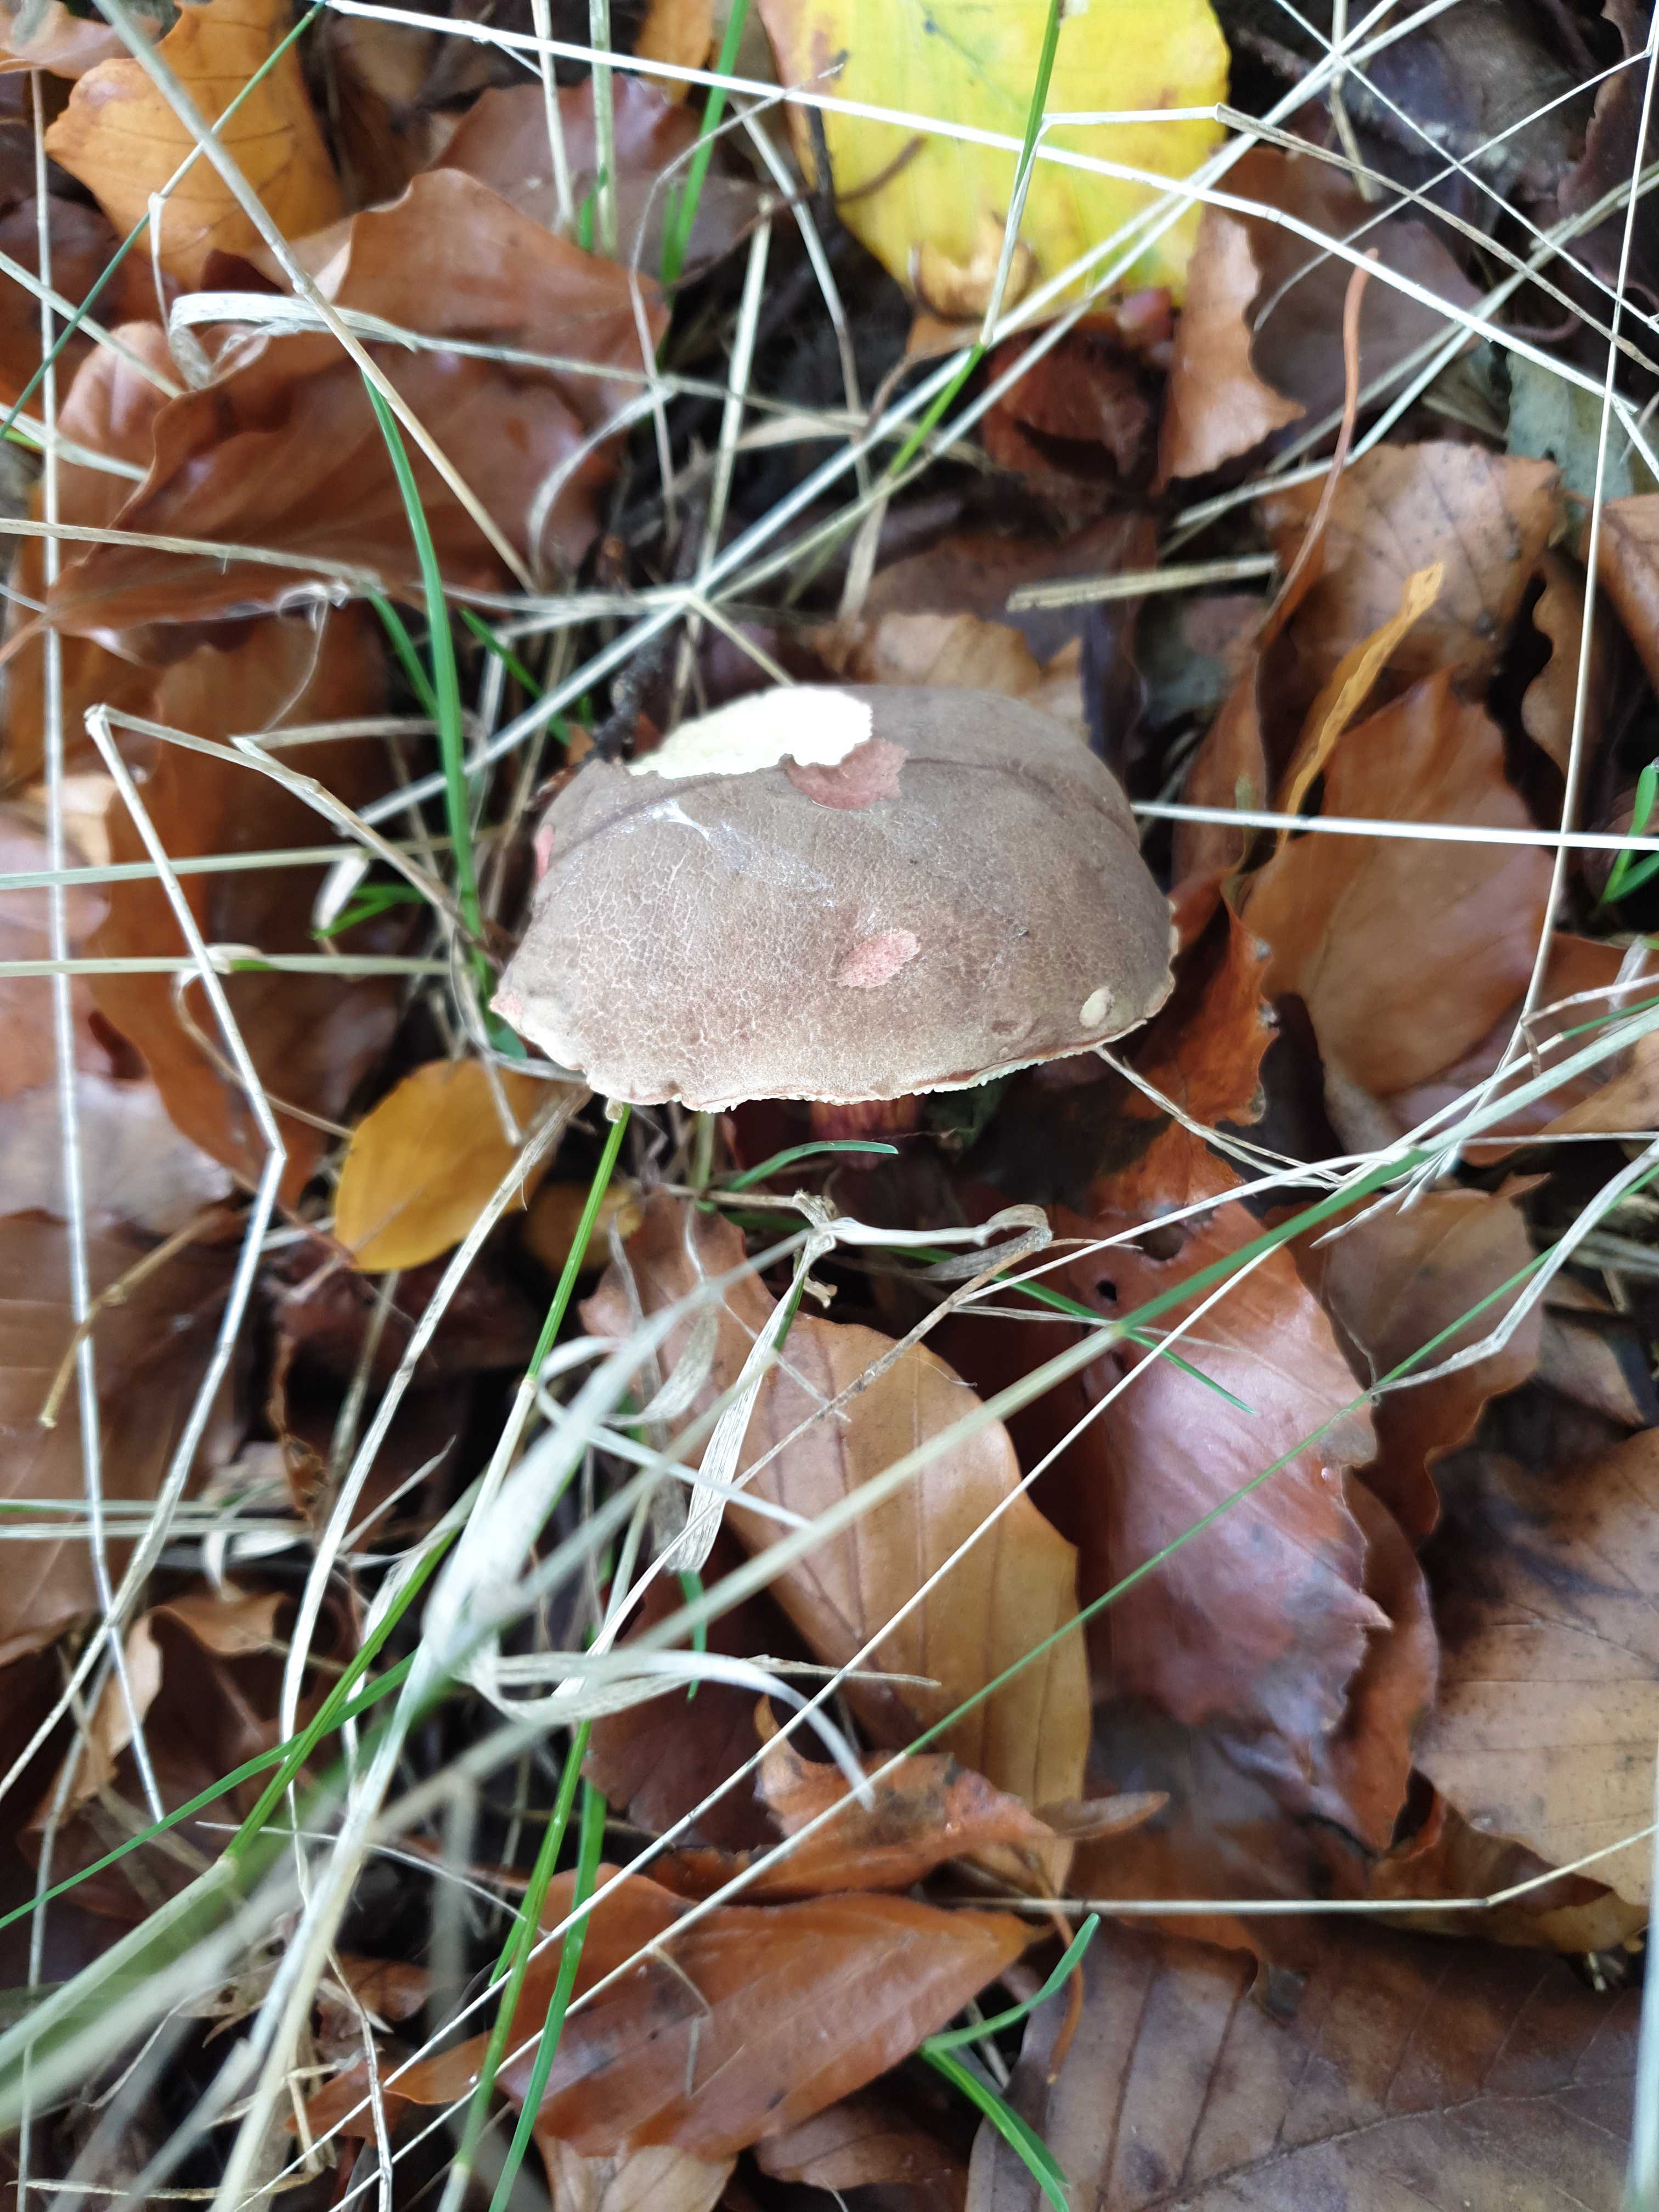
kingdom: Fungi
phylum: Basidiomycota
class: Agaricomycetes
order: Boletales
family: Boletaceae
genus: Xerocomellus
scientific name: Xerocomellus
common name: dværgrørhat
